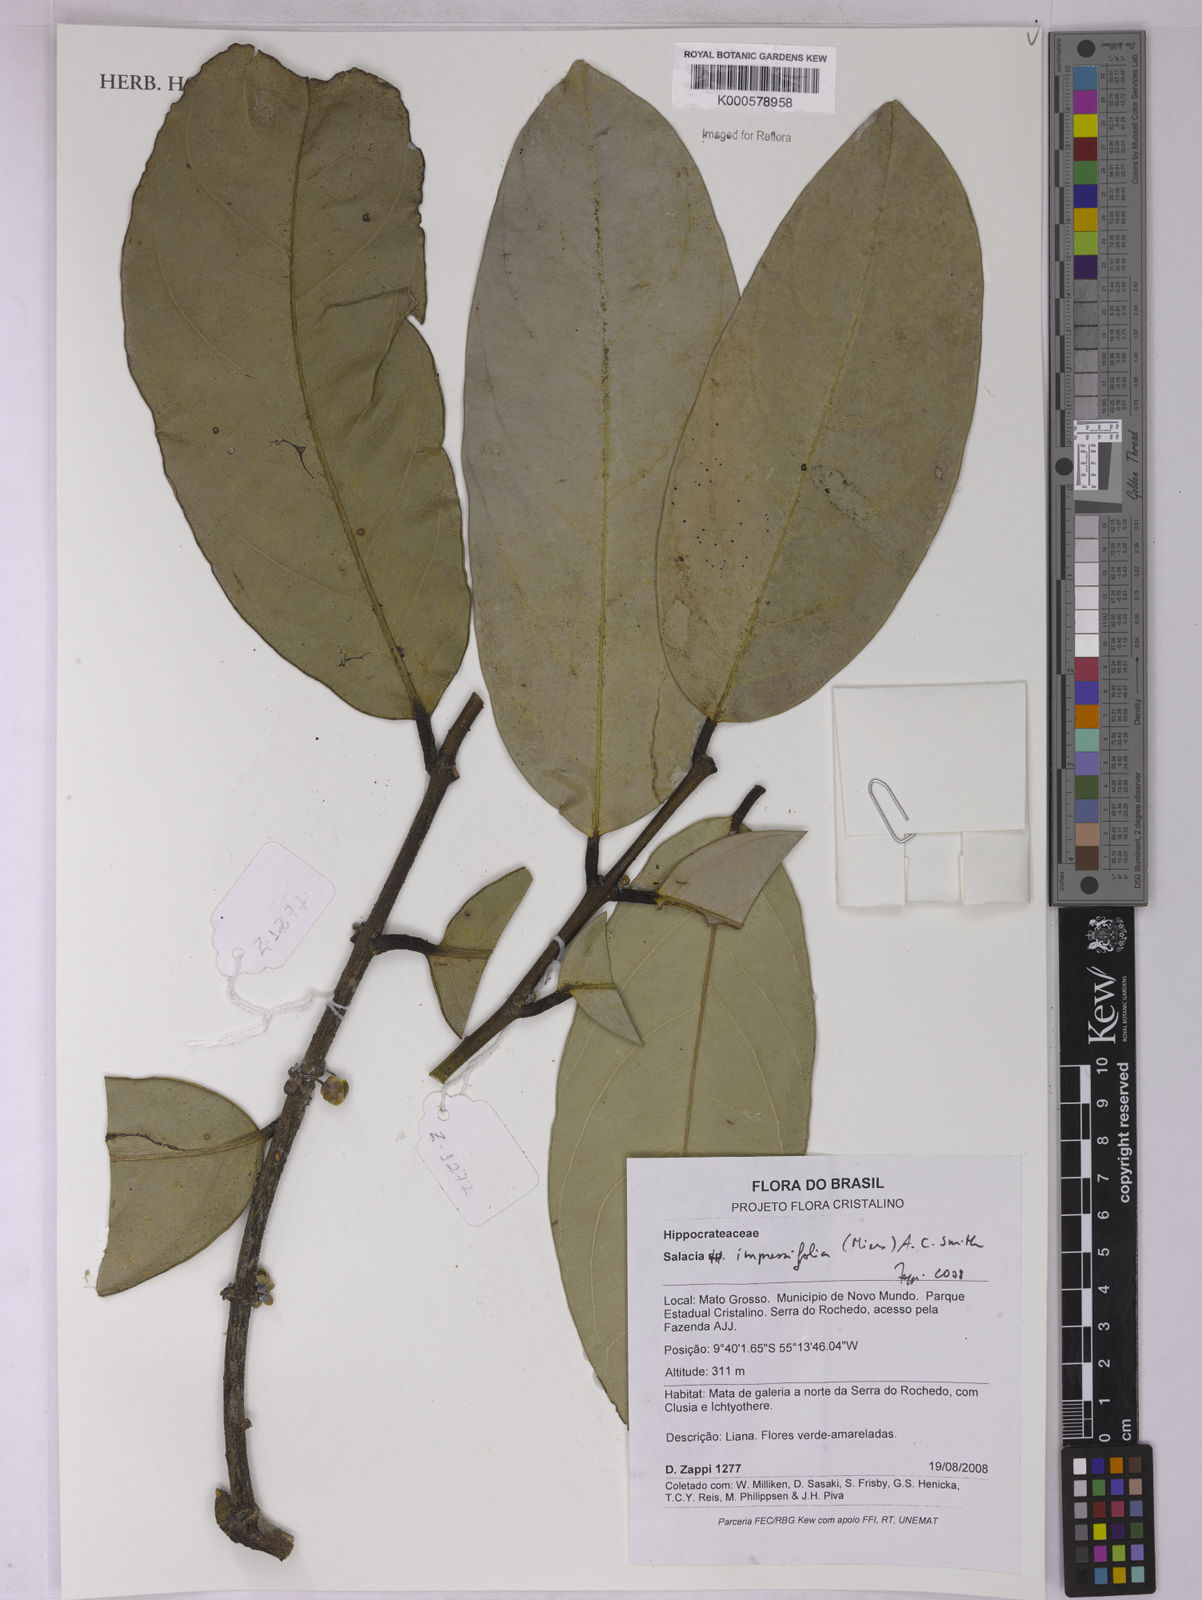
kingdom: Plantae
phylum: Tracheophyta
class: Magnoliopsida
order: Celastrales
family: Celastraceae
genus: Salacia
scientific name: Salacia impressifolia
